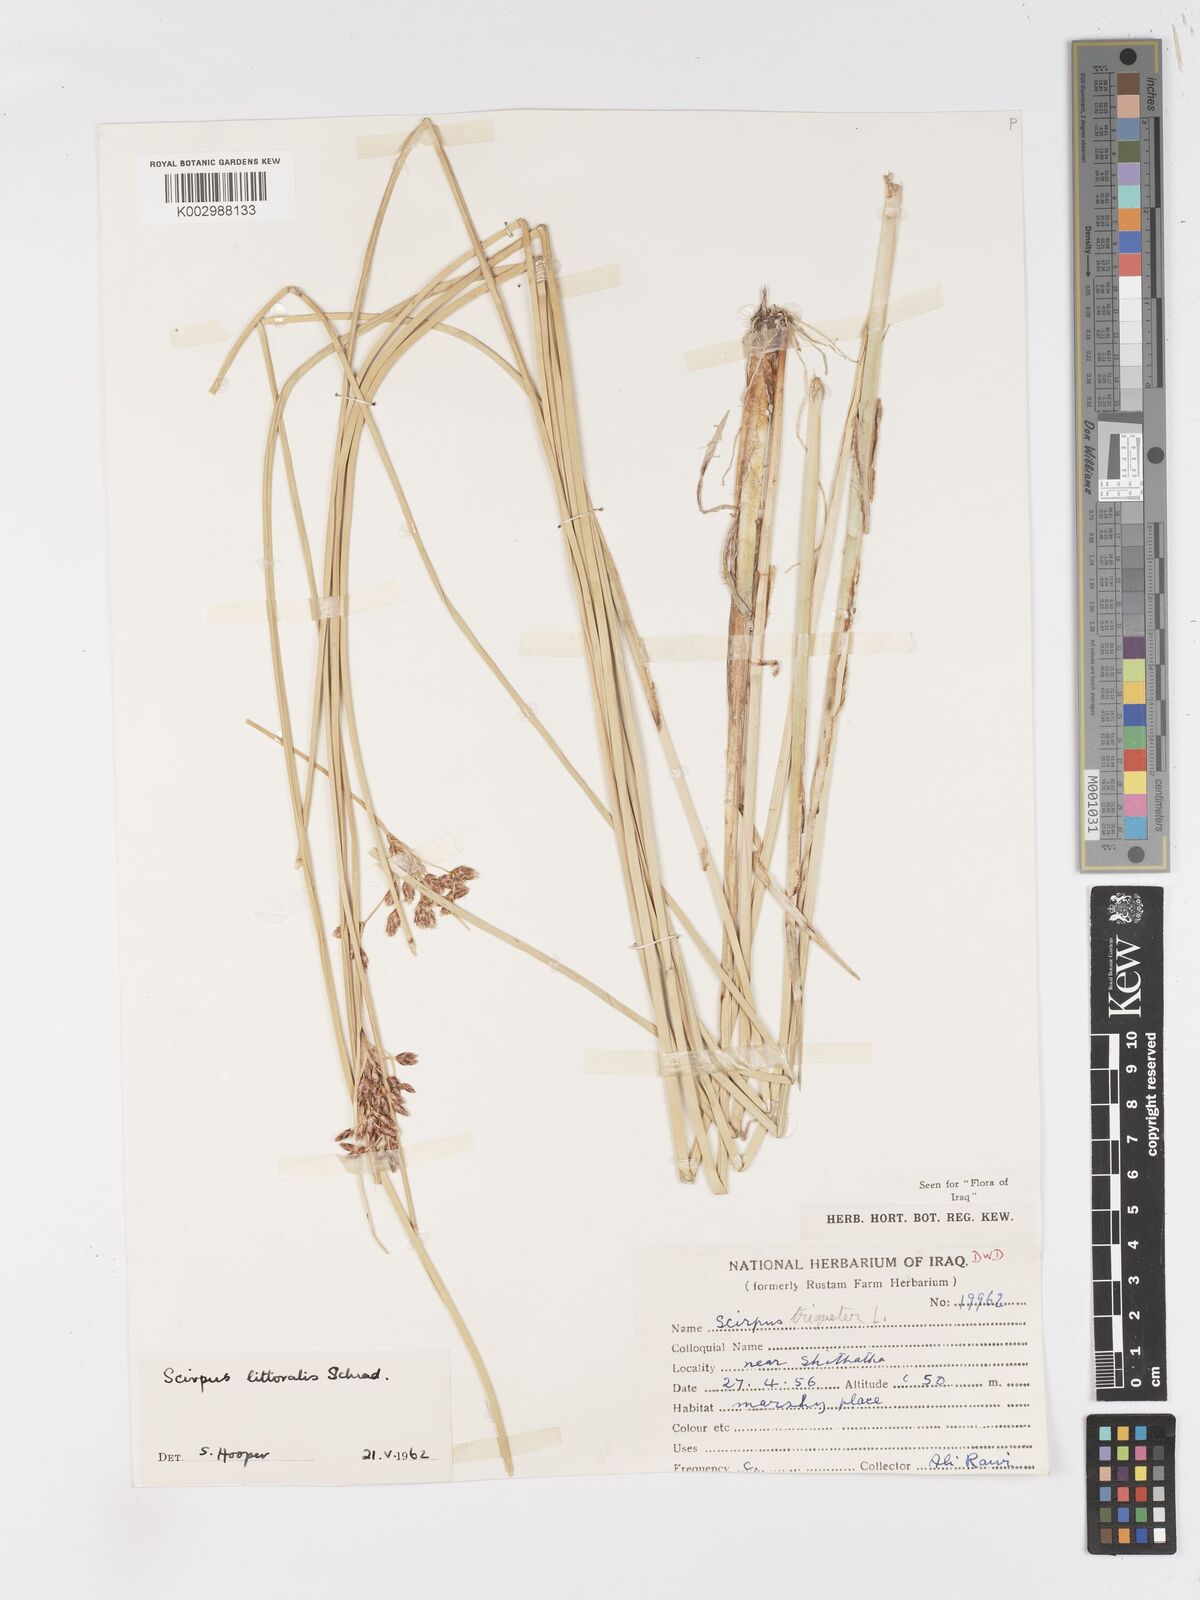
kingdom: Plantae
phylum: Tracheophyta
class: Liliopsida
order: Poales
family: Cyperaceae
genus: Schoenoplectus
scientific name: Schoenoplectus litoralis
